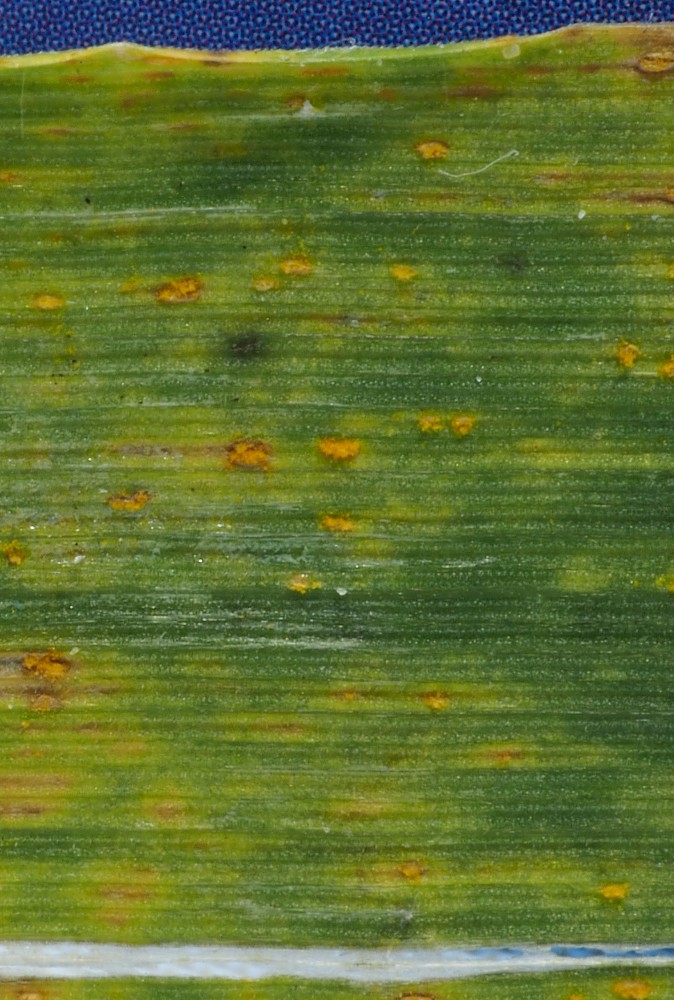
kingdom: Fungi
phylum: Basidiomycota
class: Pucciniomycetes
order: Pucciniales
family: Pucciniaceae
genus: Uromyces
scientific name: Uromyces dactylidis
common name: ranunkel-encellerust
